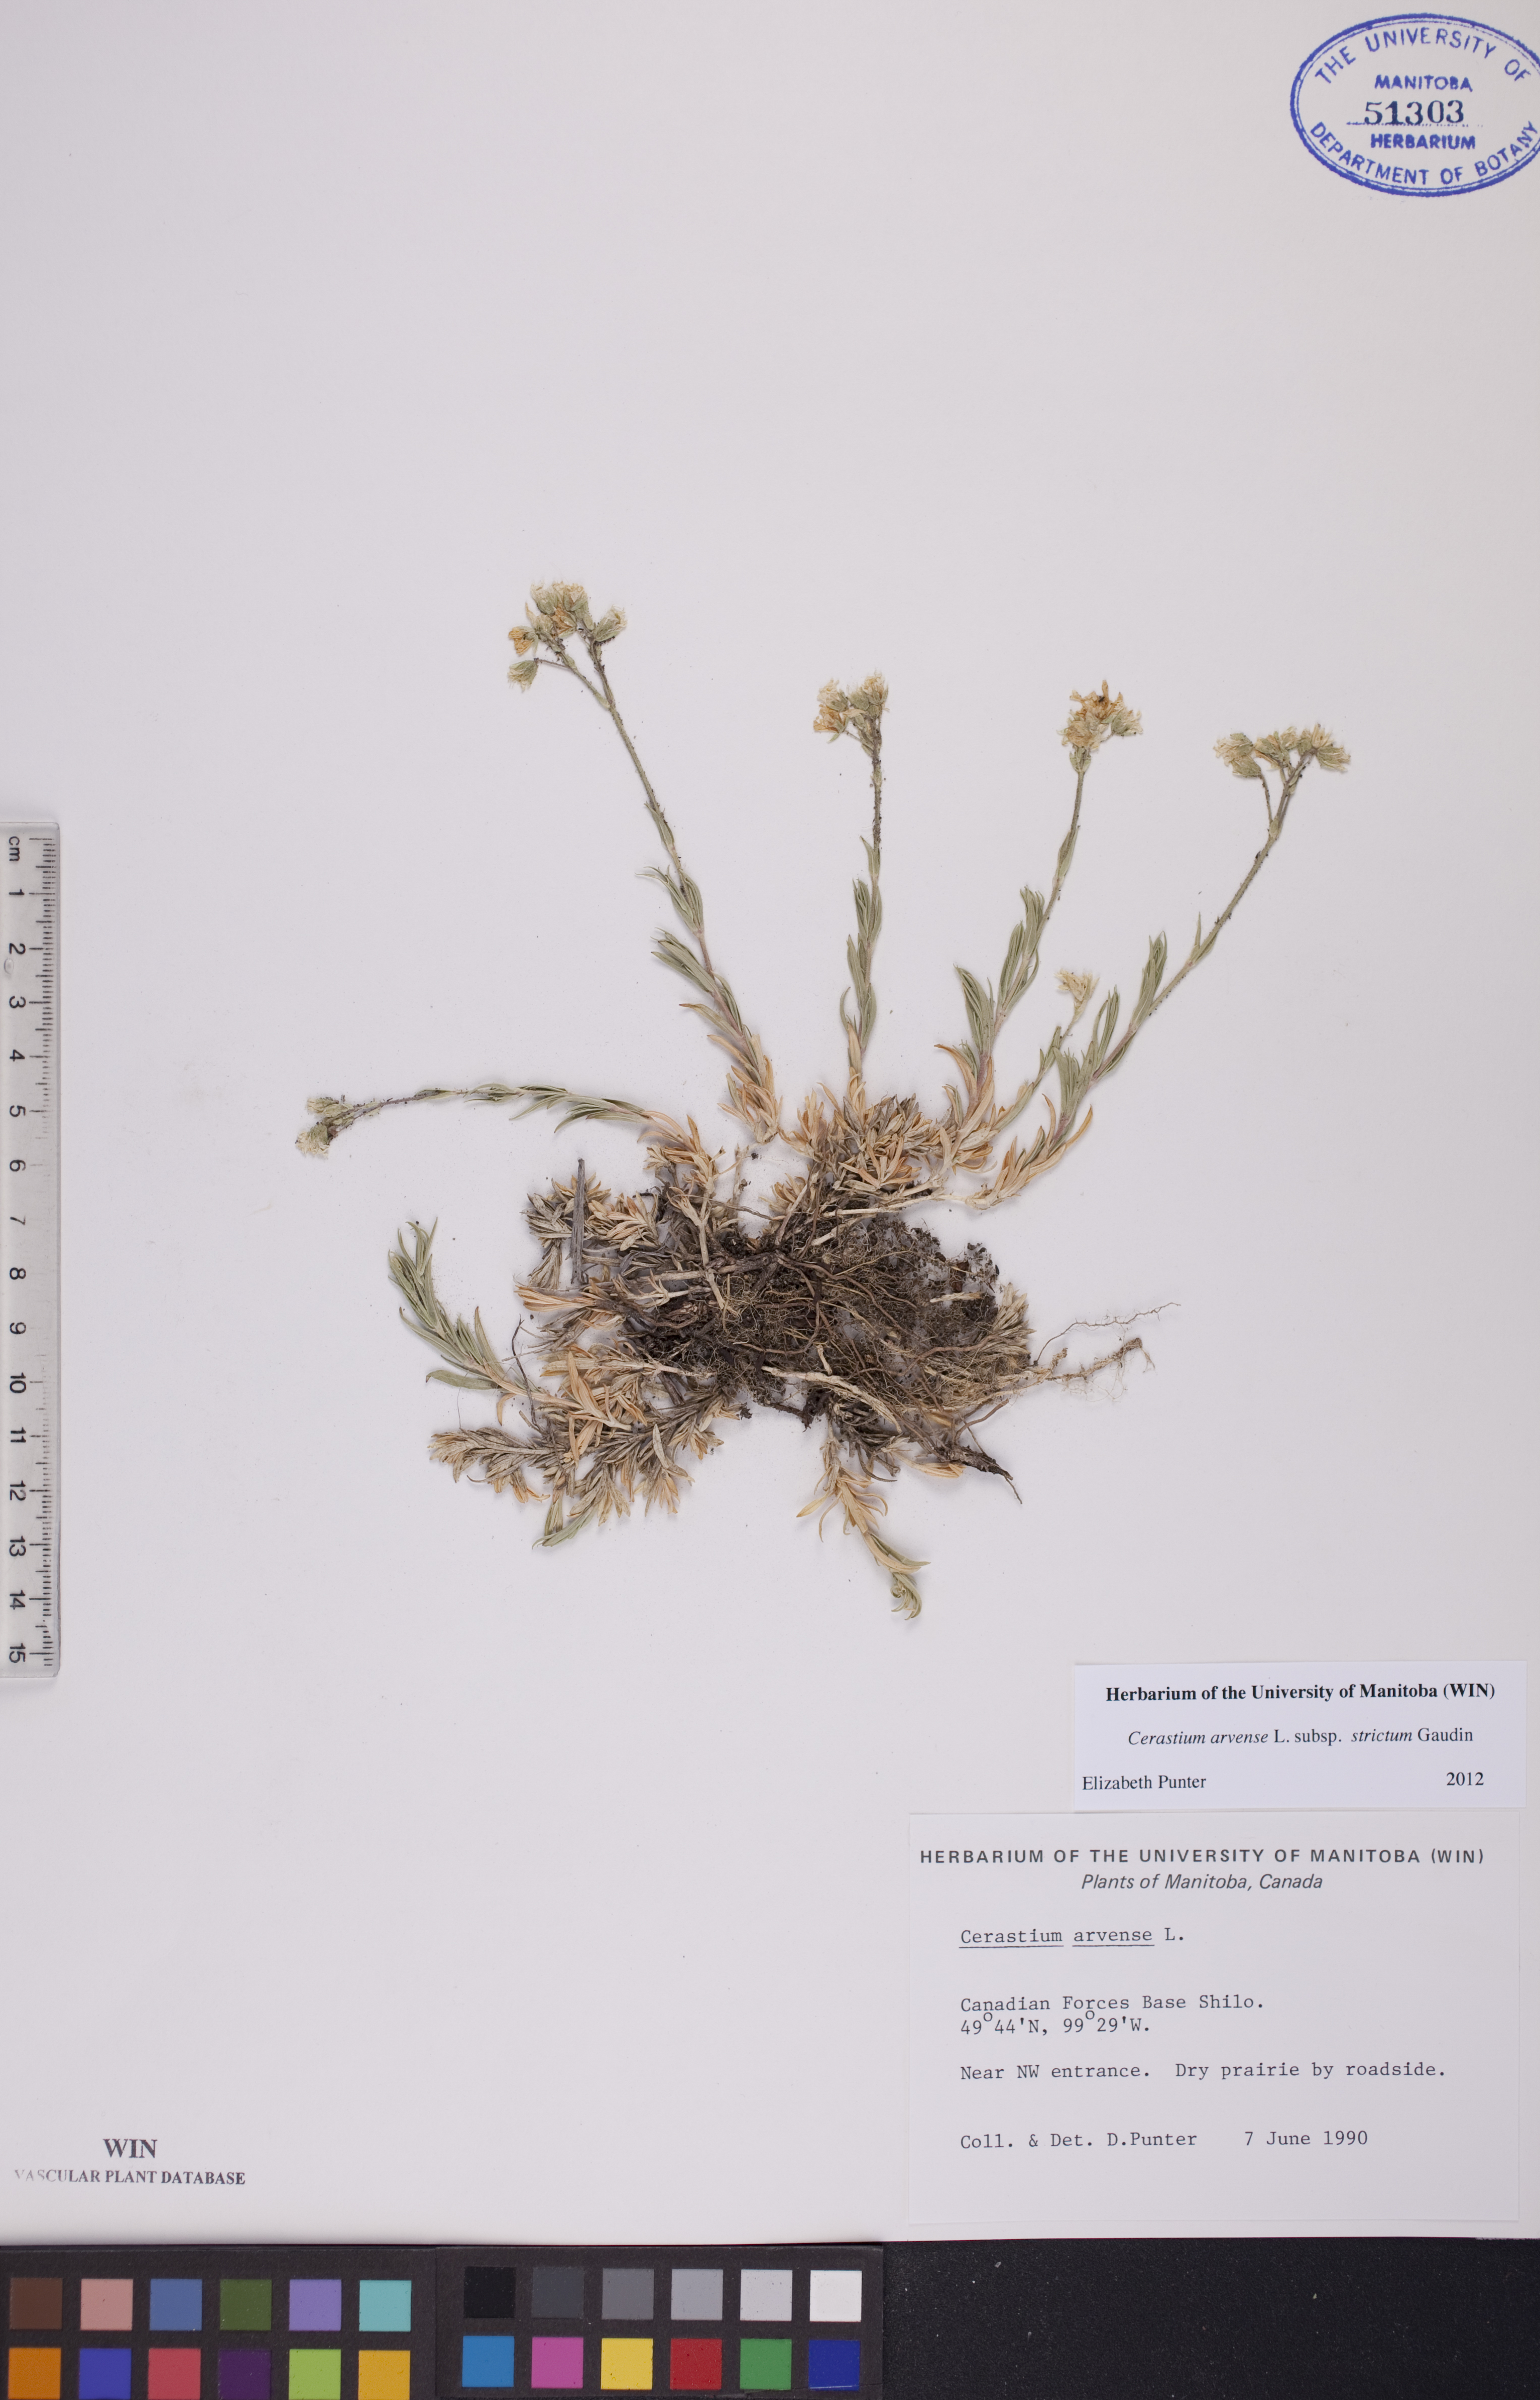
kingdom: Plantae
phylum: Tracheophyta
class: Magnoliopsida
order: Caryophyllales
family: Caryophyllaceae
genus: Cerastium
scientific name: Cerastium elongatum
